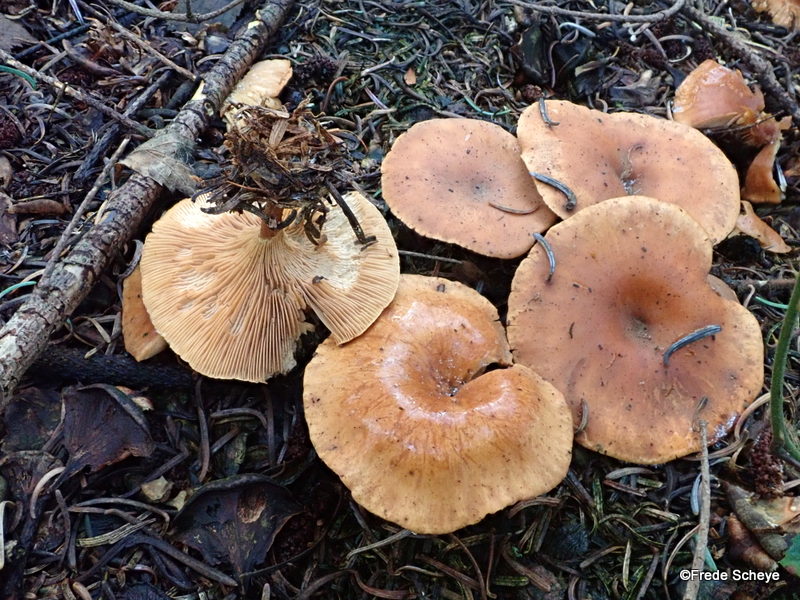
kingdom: Fungi
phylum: Basidiomycota
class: Agaricomycetes
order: Agaricales
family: Tricholomataceae
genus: Paralepista
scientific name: Paralepista flaccida
